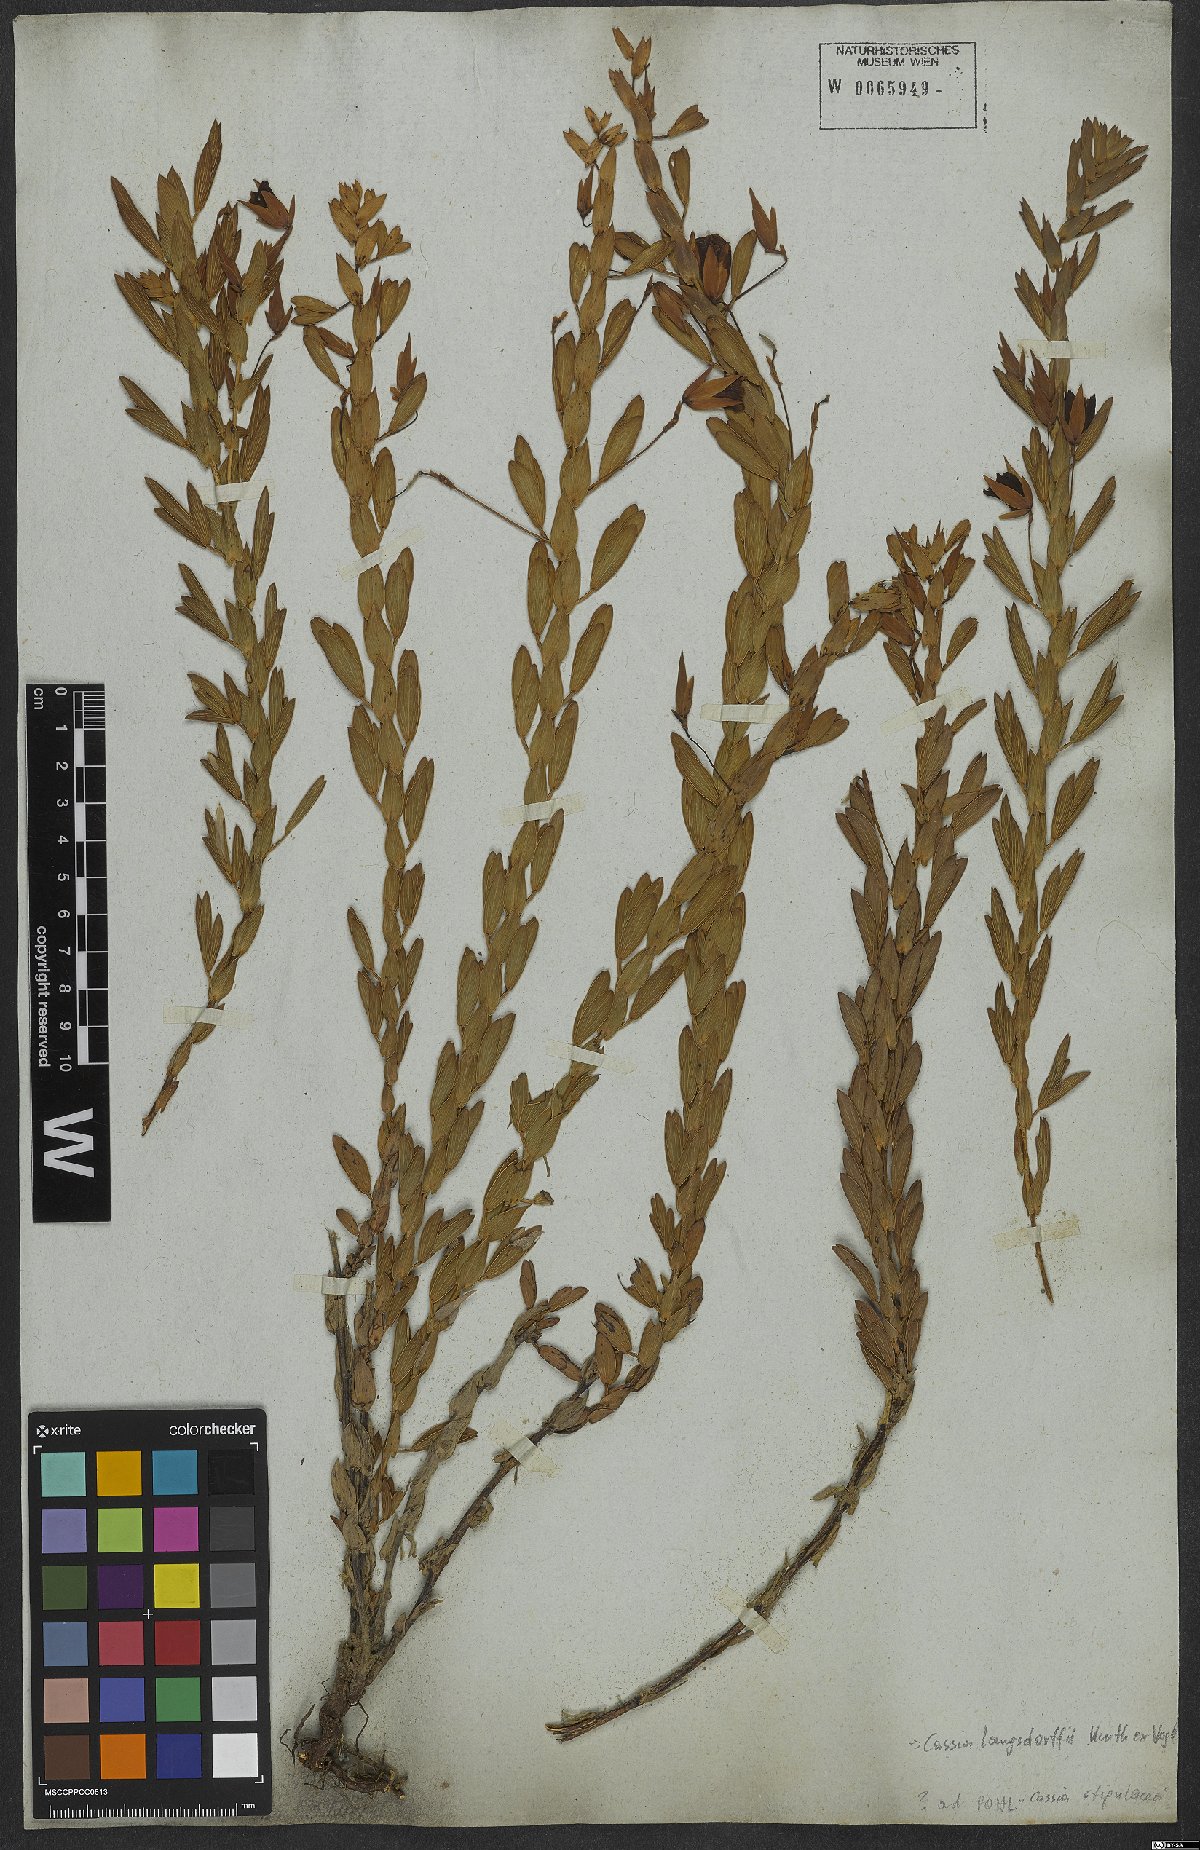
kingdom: Plantae
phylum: Tracheophyta
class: Magnoliopsida
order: Fabales
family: Fabaceae
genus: Chamaecrista
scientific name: Chamaecrista langsdorffii
